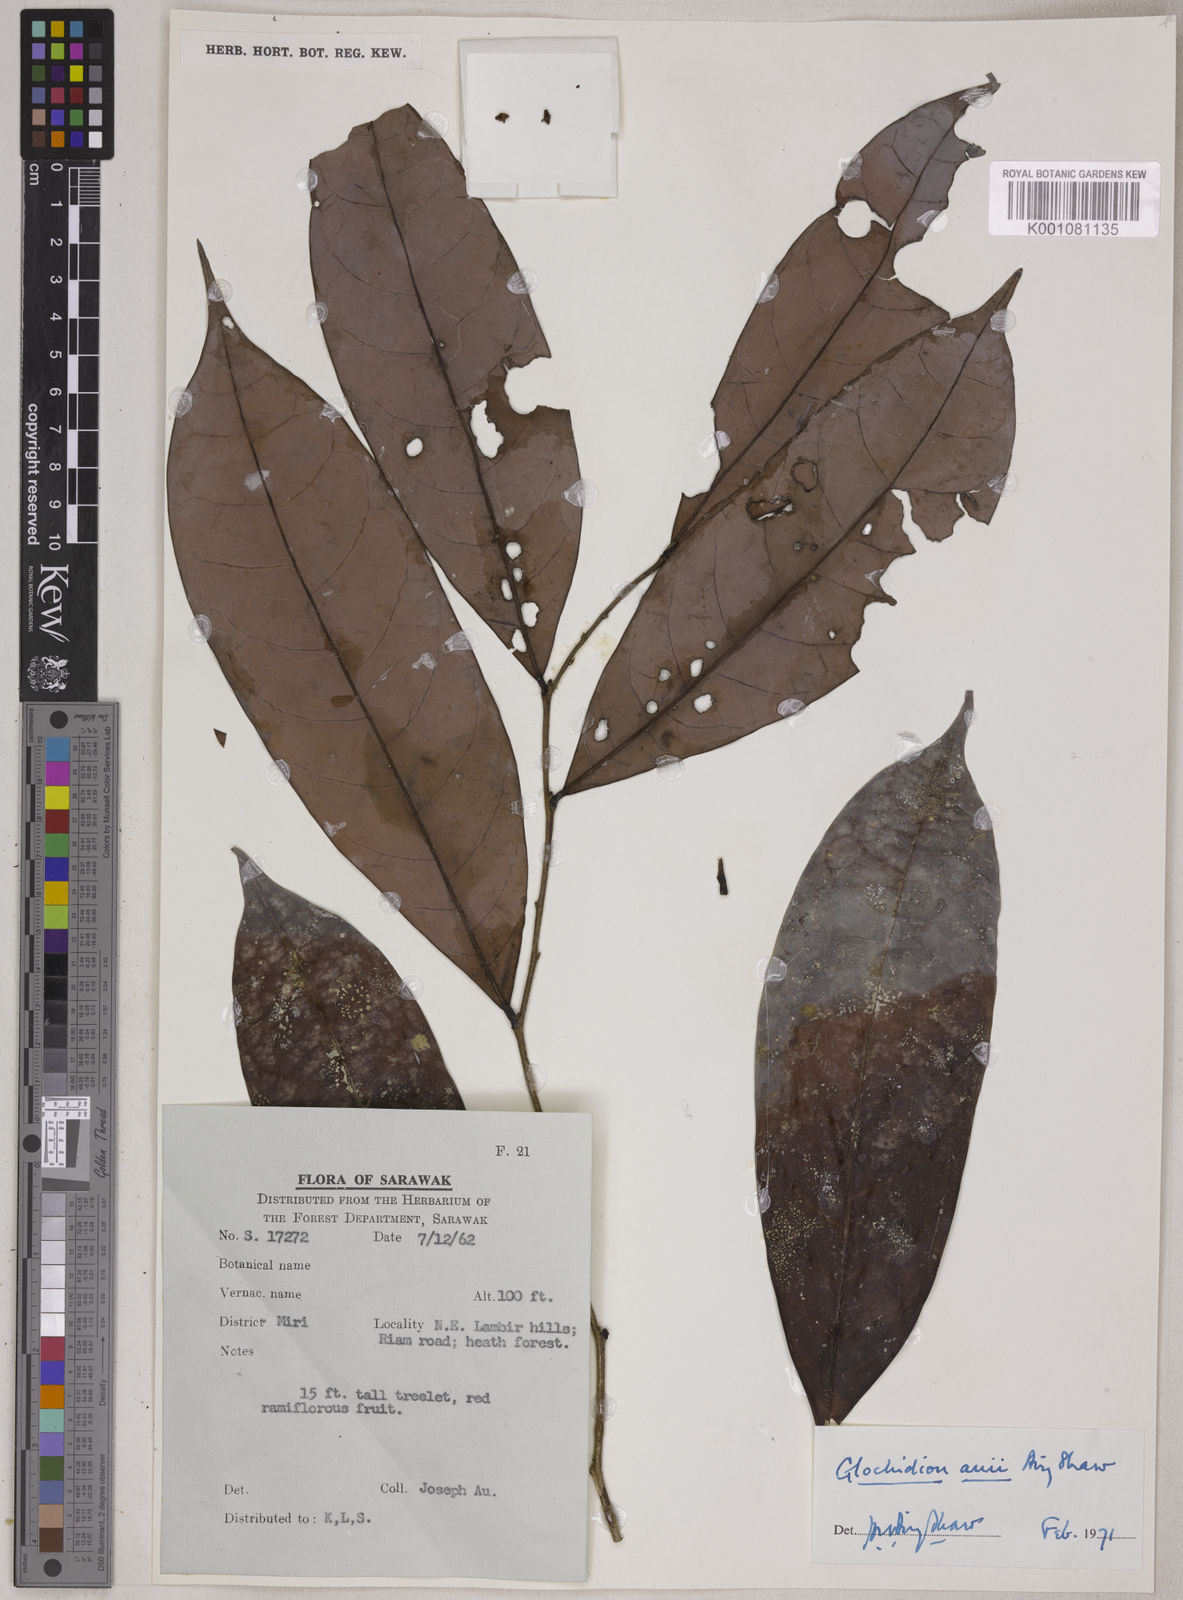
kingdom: Plantae
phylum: Tracheophyta
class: Magnoliopsida
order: Malpighiales
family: Phyllanthaceae
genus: Glochidion
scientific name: Glochidion auii
